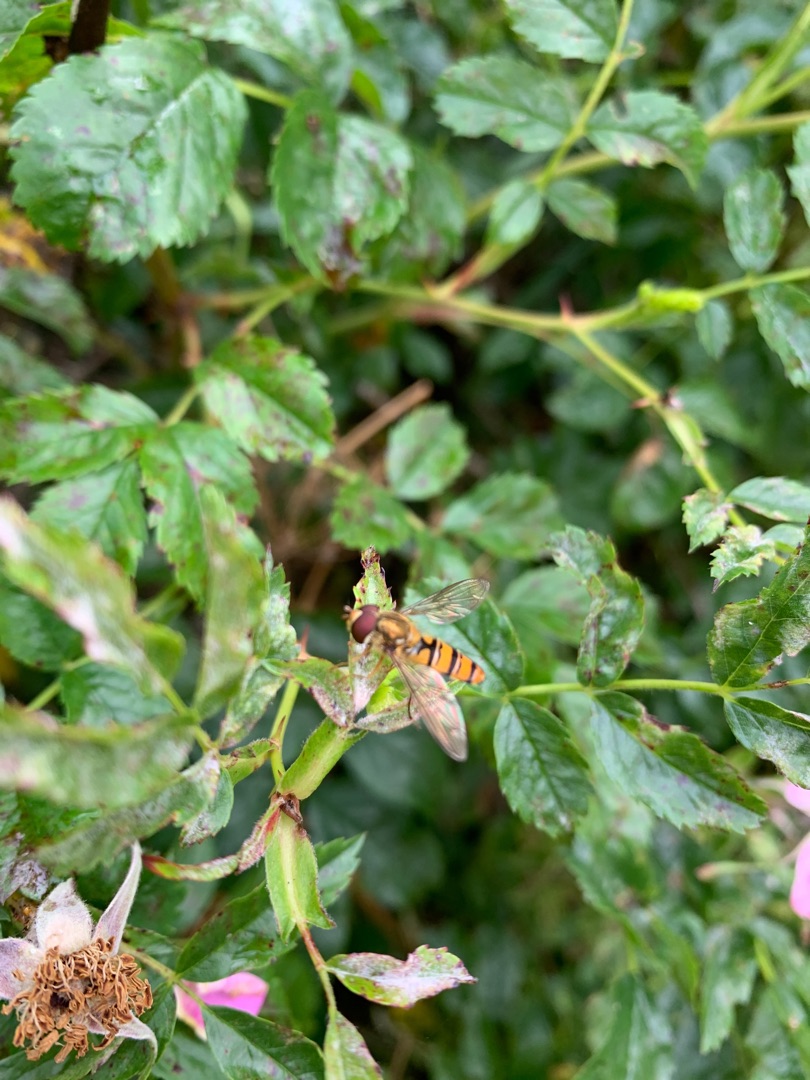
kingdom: Animalia
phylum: Arthropoda
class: Insecta
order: Diptera
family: Syrphidae
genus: Episyrphus
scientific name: Episyrphus balteatus
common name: Dobbeltbåndet svirreflue
